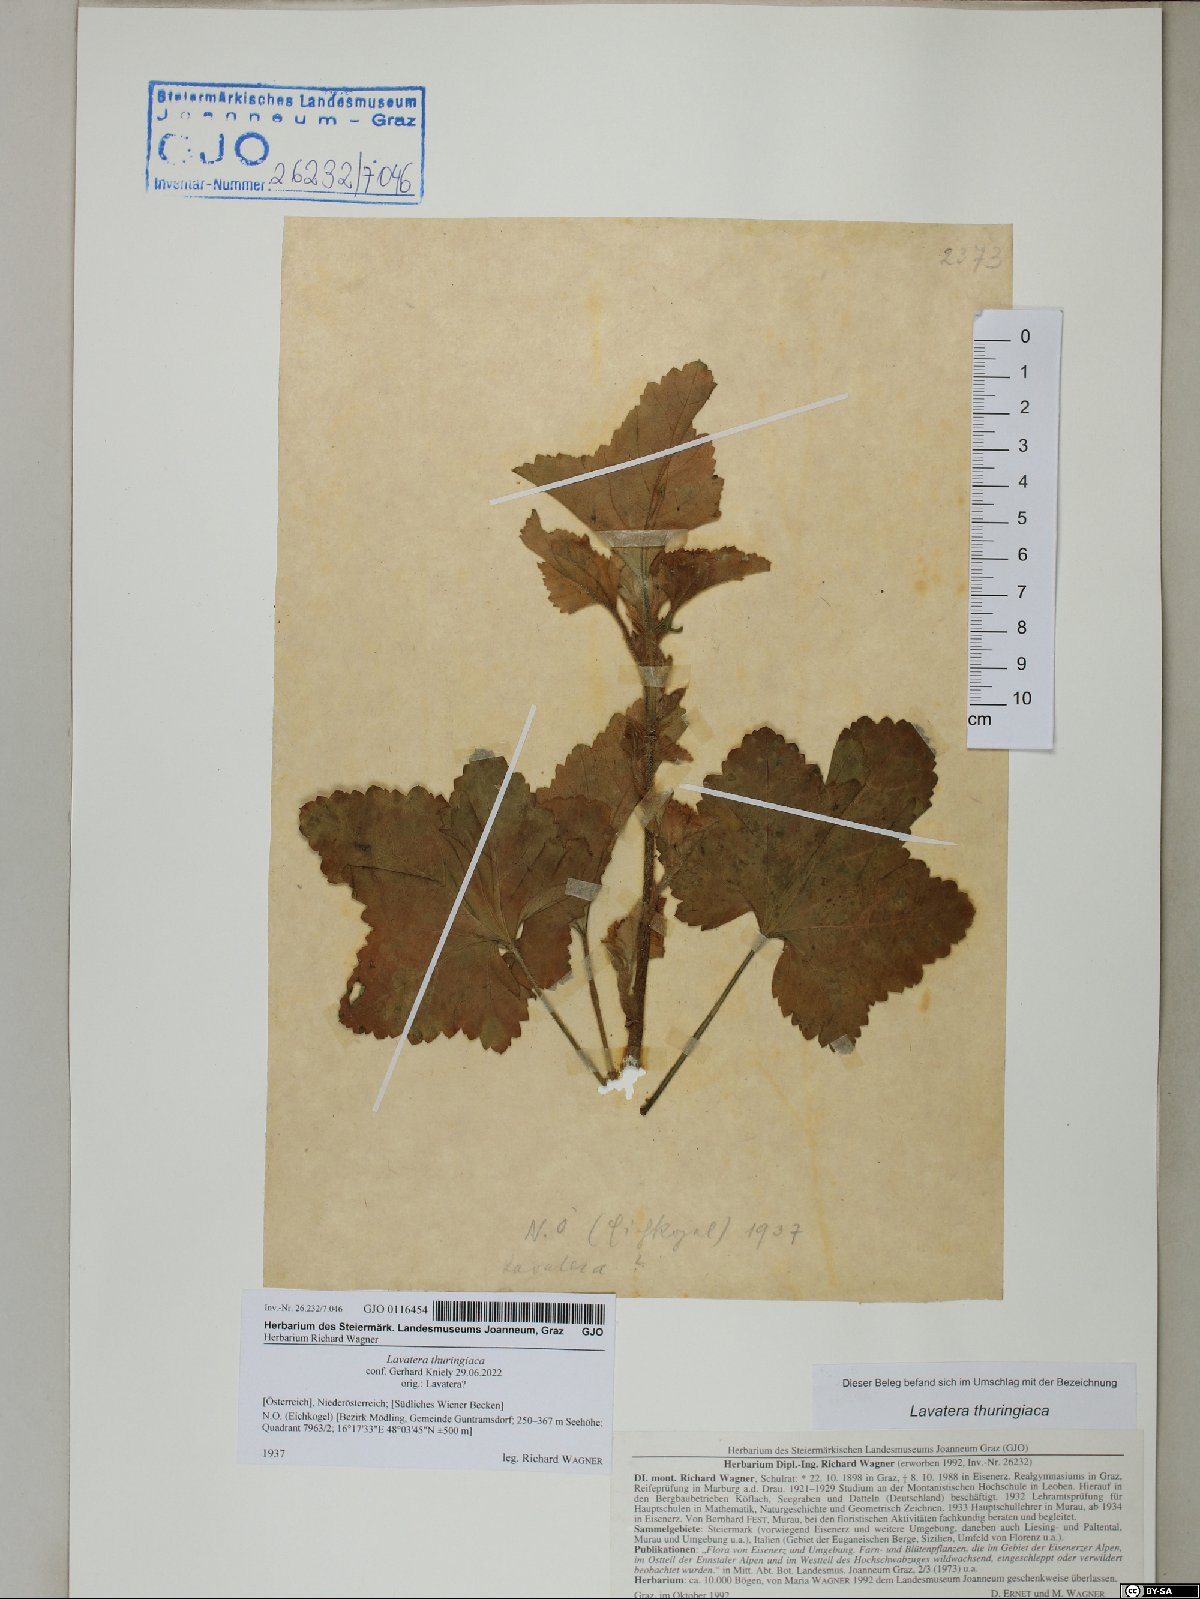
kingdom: Plantae
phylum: Tracheophyta
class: Magnoliopsida
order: Malvales
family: Malvaceae
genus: Malva
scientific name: Malva thuringiaca
